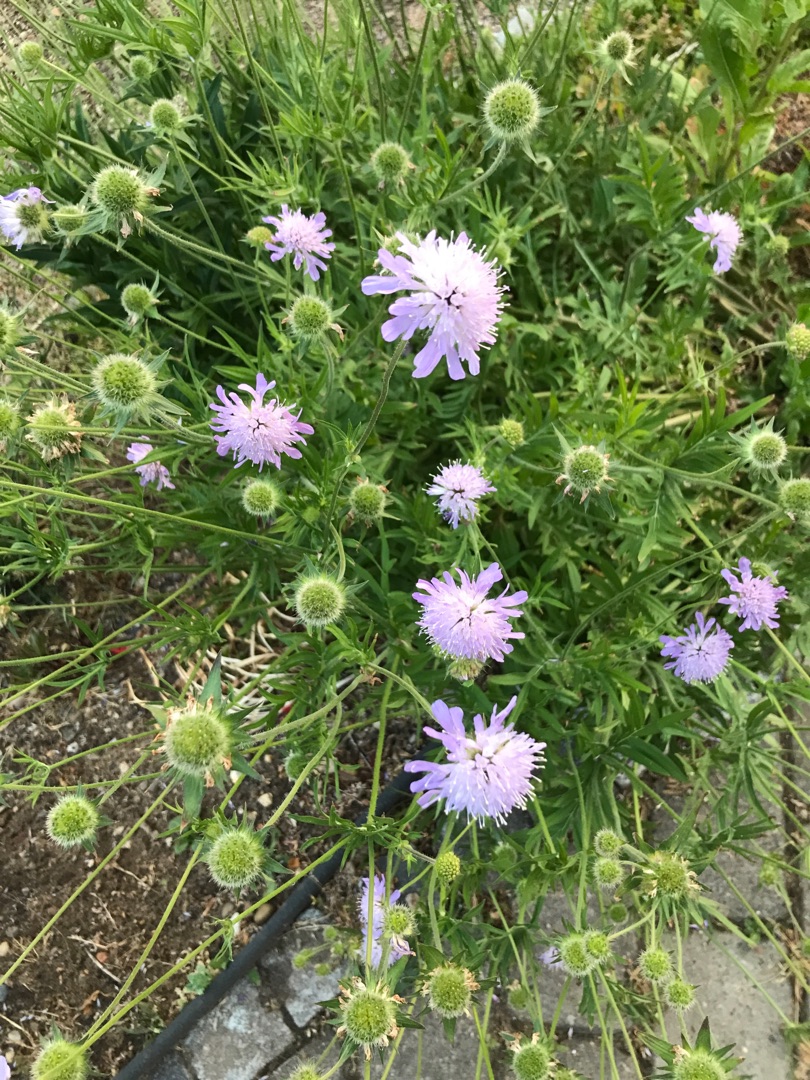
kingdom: Plantae
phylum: Tracheophyta
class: Magnoliopsida
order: Dipsacales
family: Caprifoliaceae
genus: Knautia
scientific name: Knautia arvensis
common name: Blåhat
